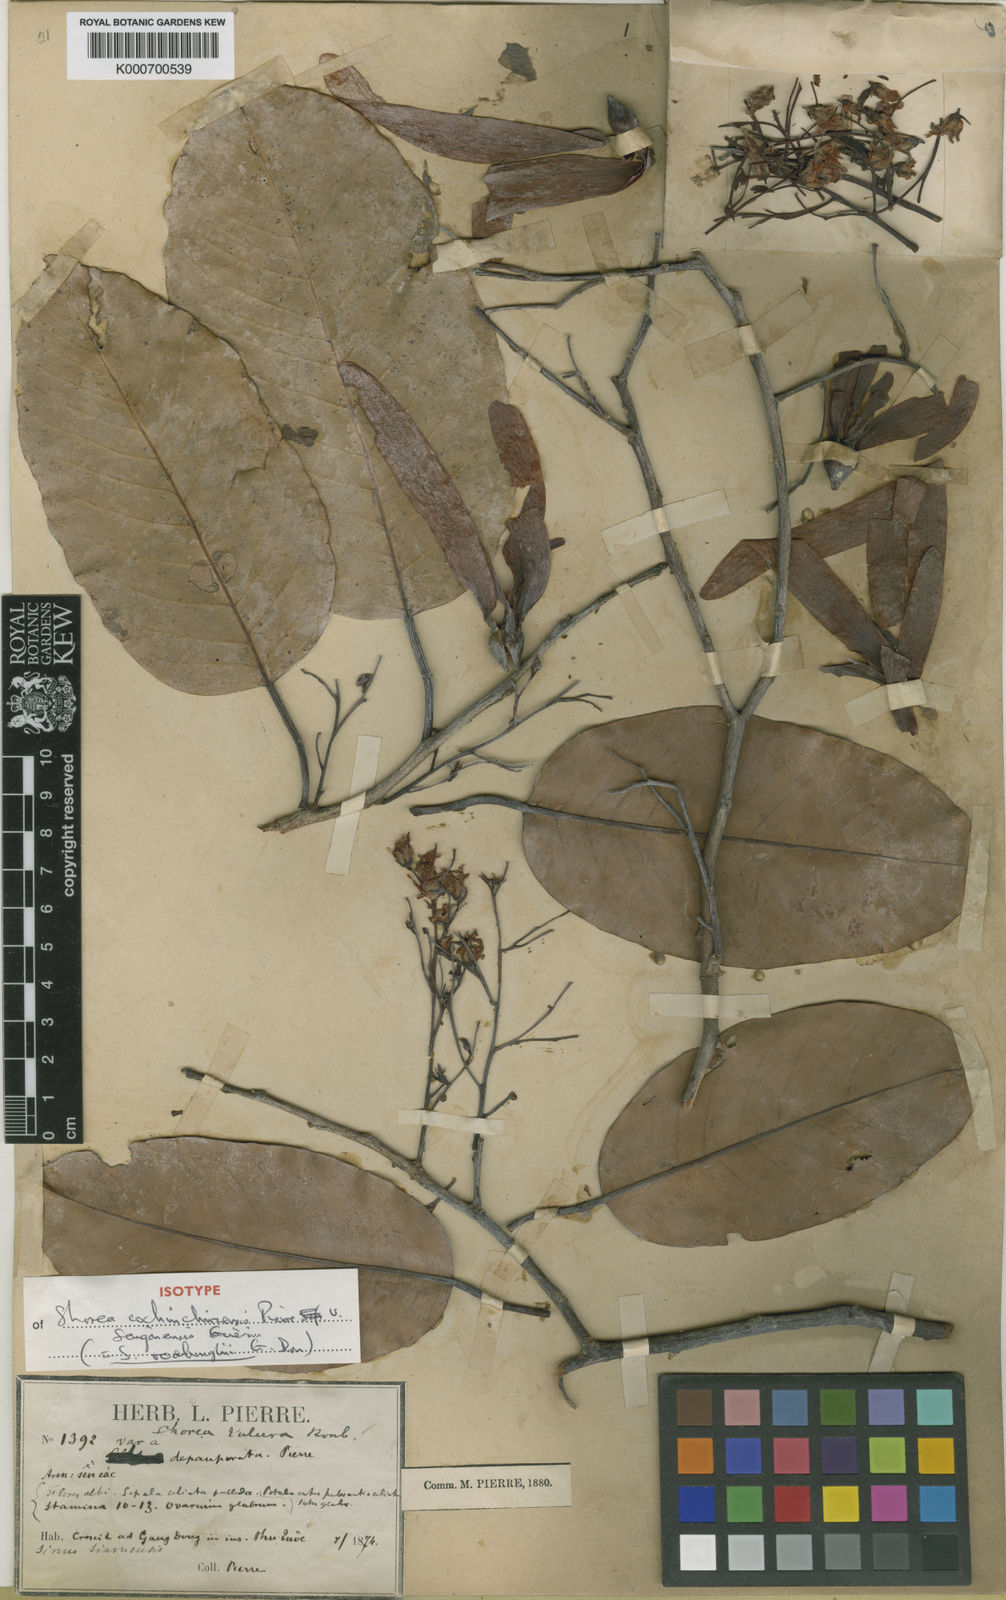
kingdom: Plantae
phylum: Tracheophyta
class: Magnoliopsida
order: Malvales
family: Dipterocarpaceae
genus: Anthoshorea
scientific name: Anthoshorea roxburghii
